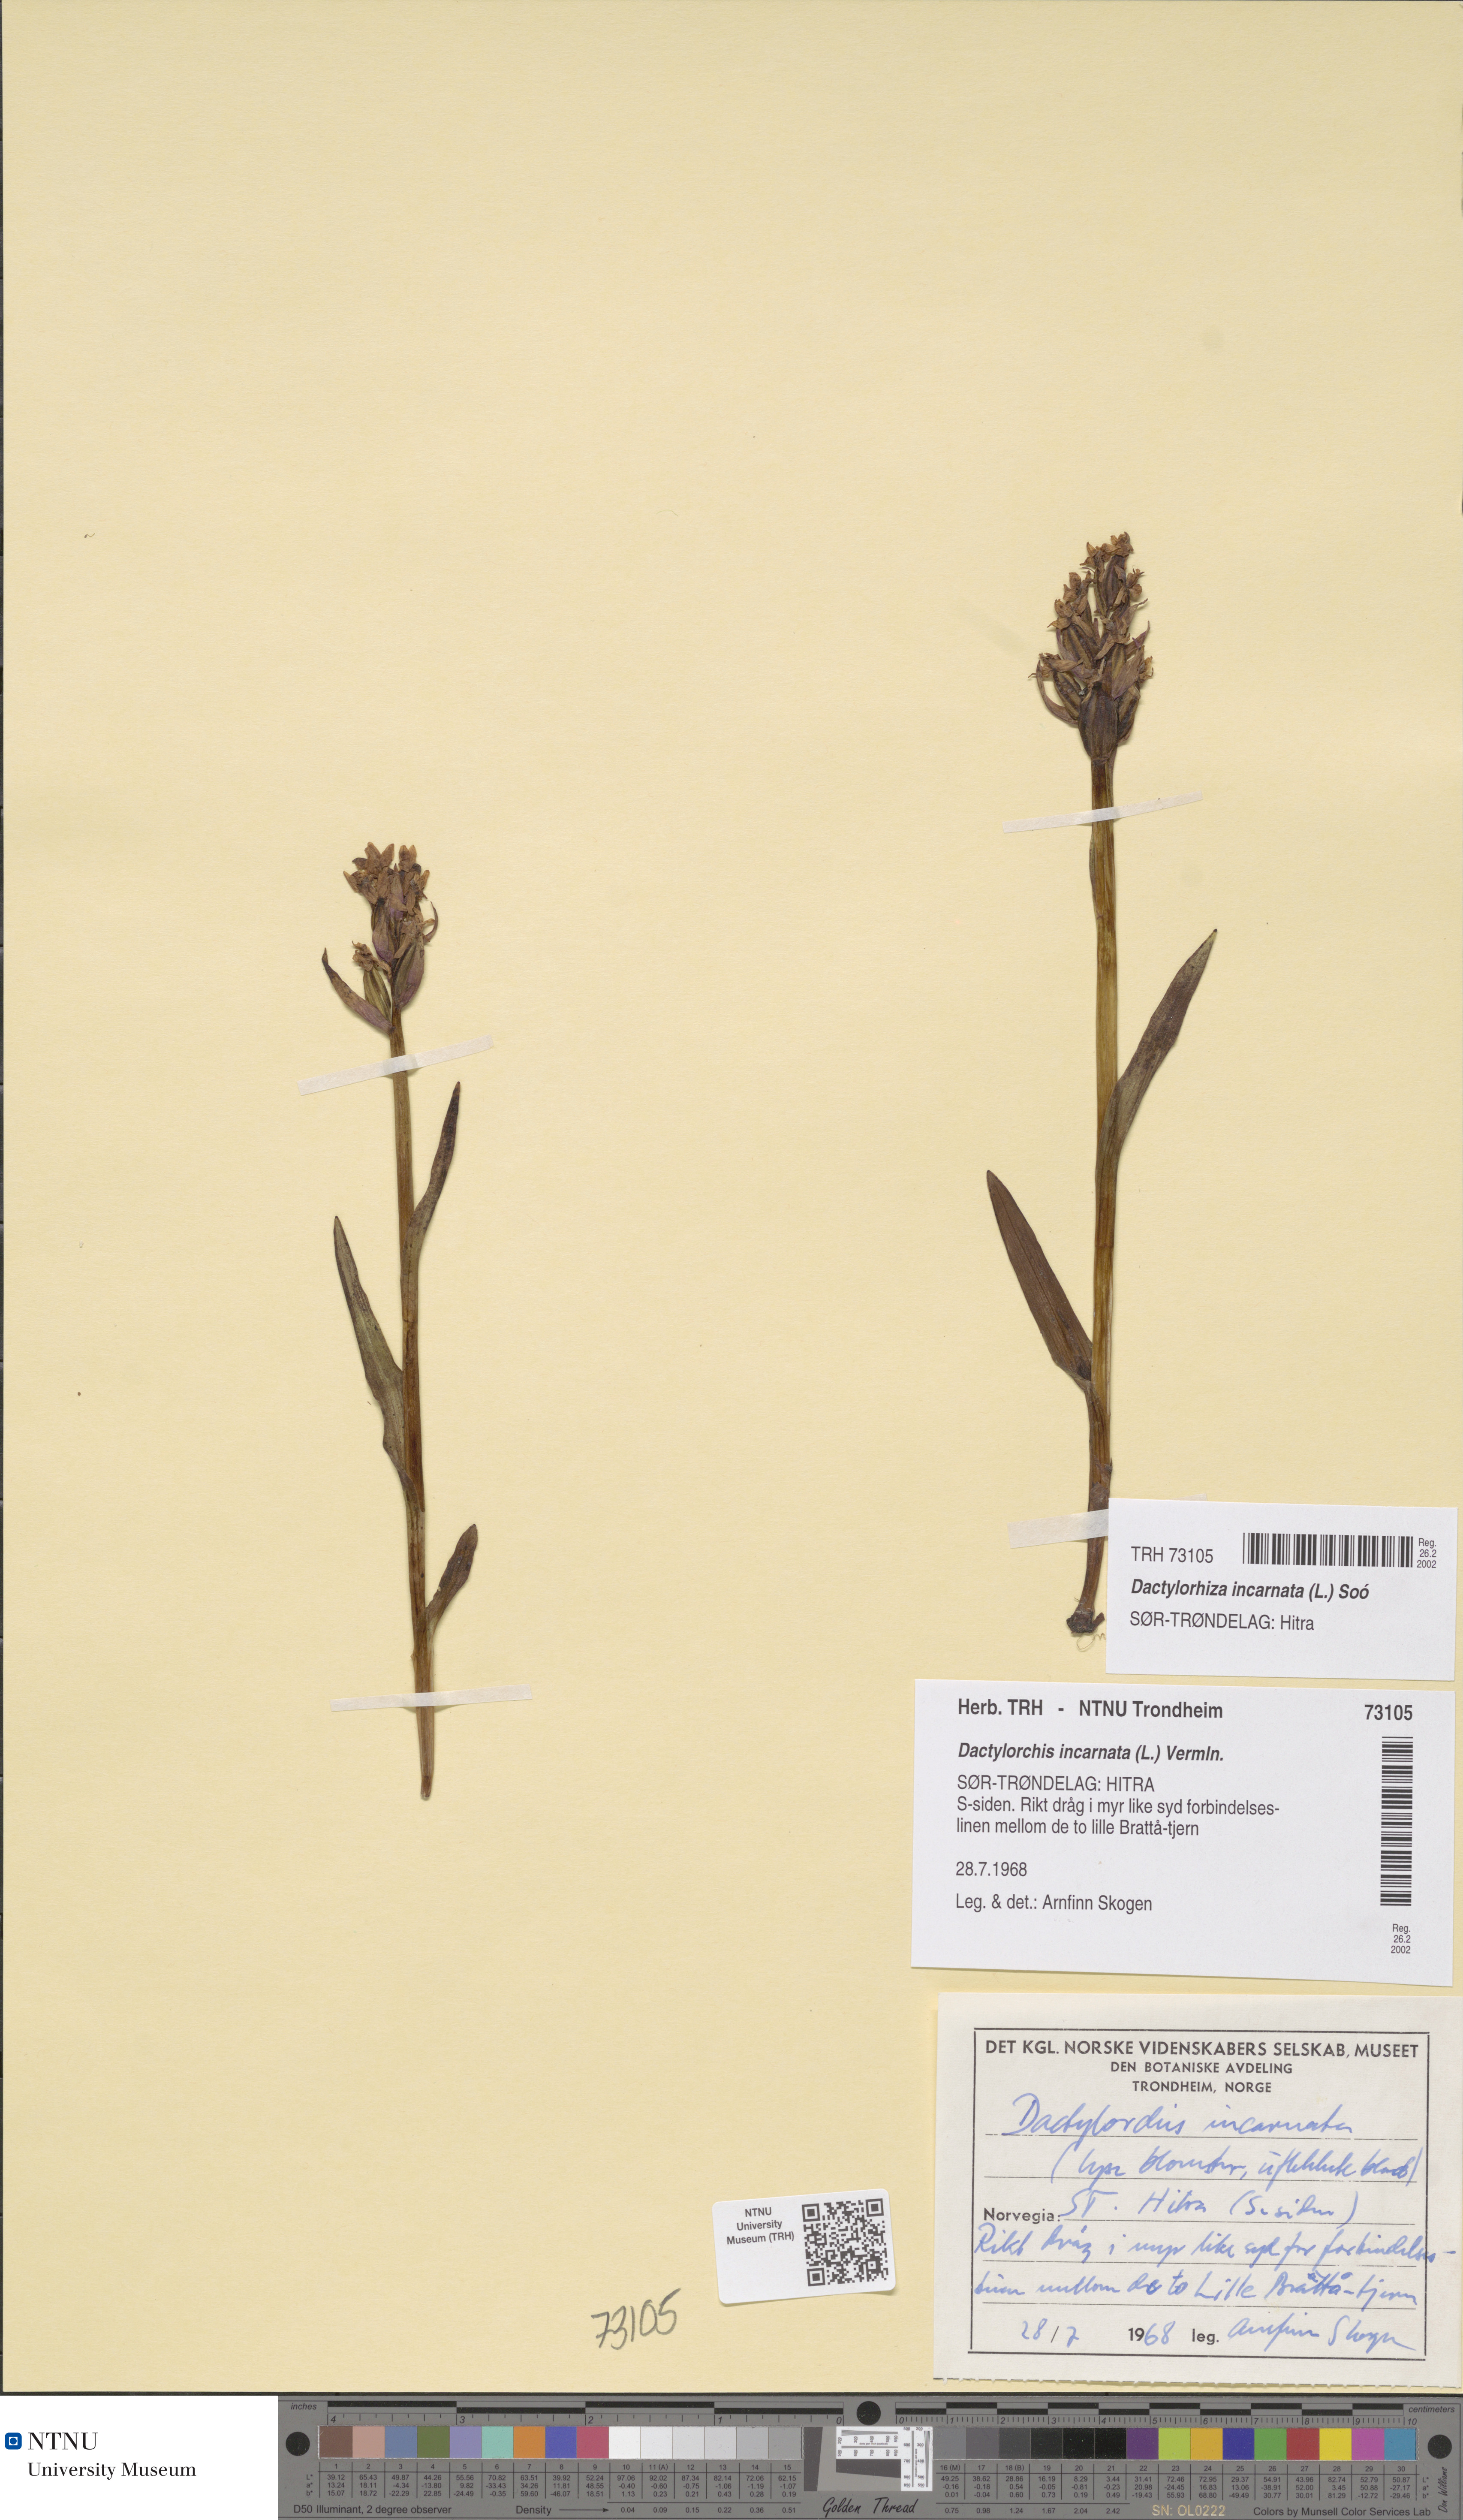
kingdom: Plantae
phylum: Tracheophyta
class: Liliopsida
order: Asparagales
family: Orchidaceae
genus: Dactylorhiza
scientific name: Dactylorhiza incarnata
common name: Early marsh-orchid
